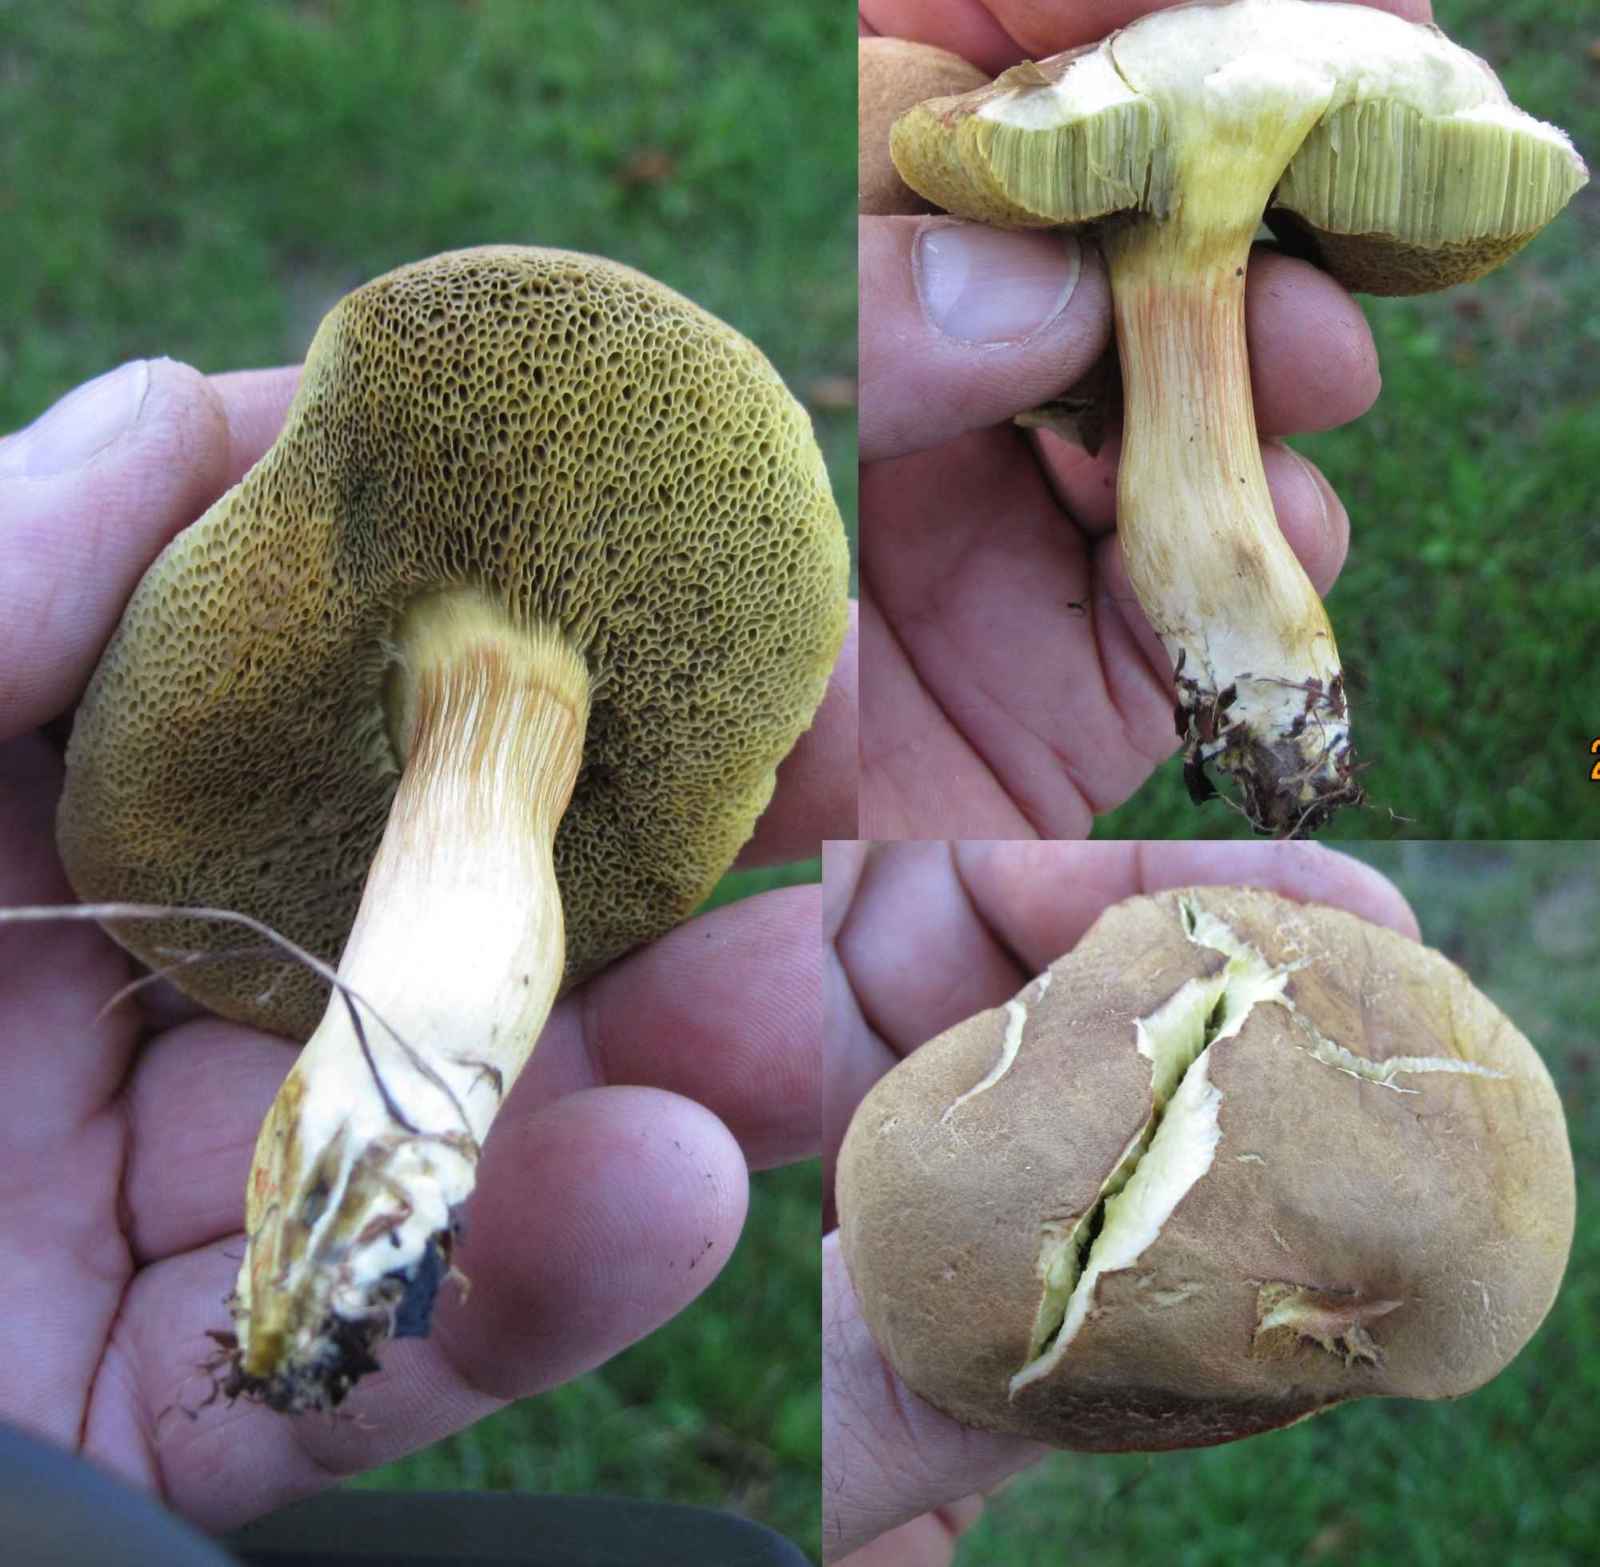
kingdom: Fungi
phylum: Basidiomycota
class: Agaricomycetes
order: Boletales
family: Boletaceae
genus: Xerocomus
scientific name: Xerocomus ferrugineus
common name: vaskeskinds-rørhat
